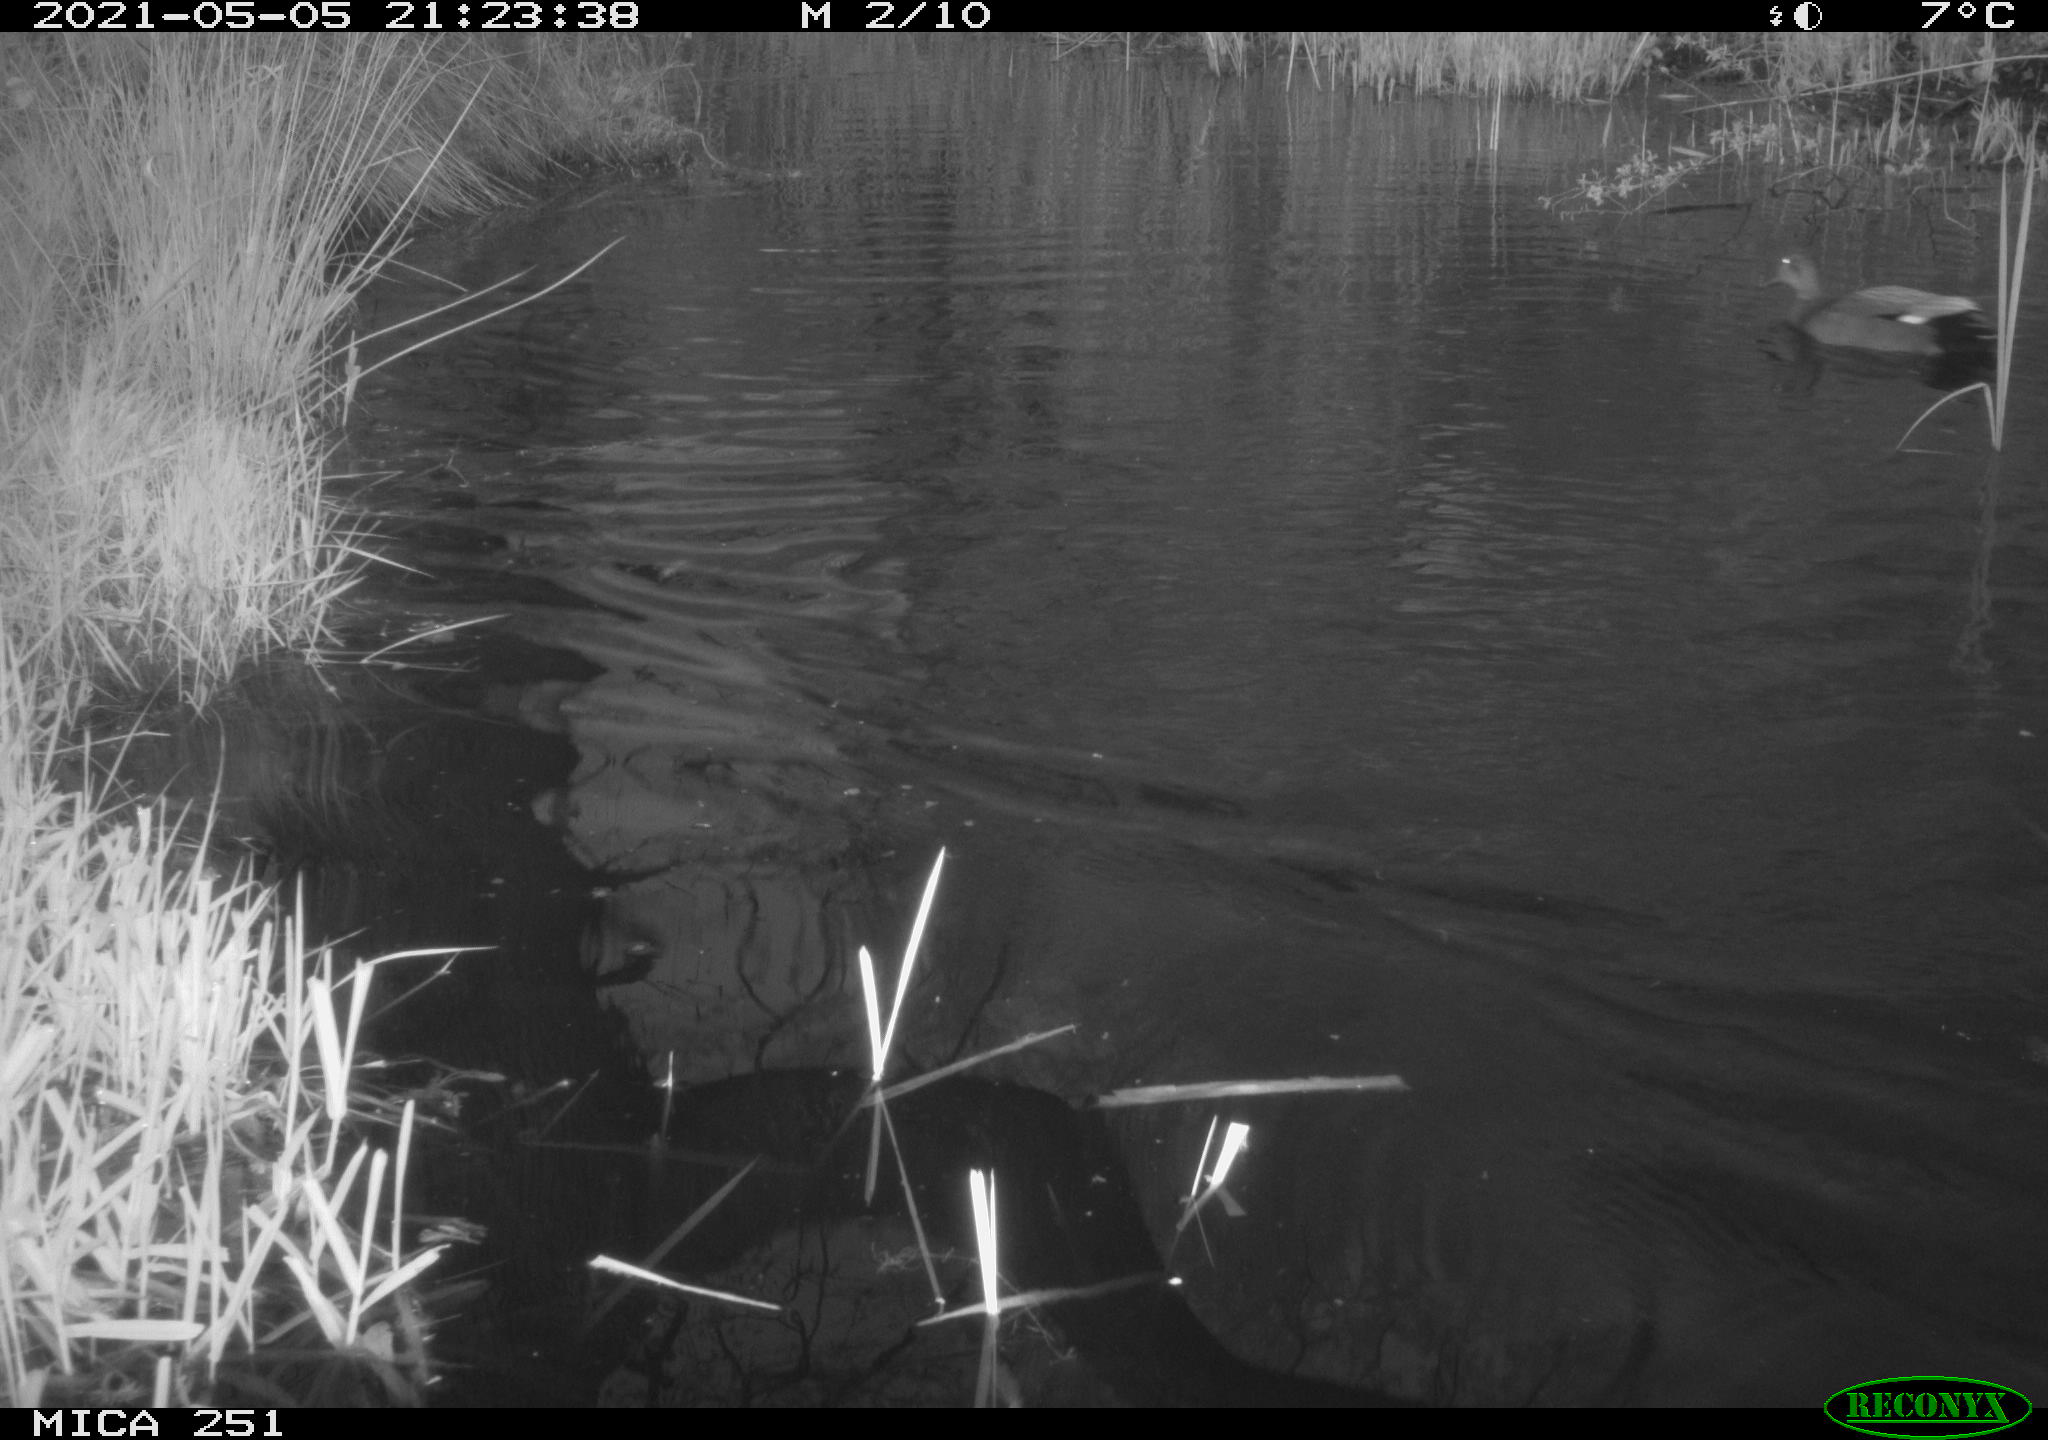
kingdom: Animalia
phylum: Chordata
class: Aves
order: Anseriformes
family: Anatidae
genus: Anas
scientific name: Anas platyrhynchos
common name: Mallard
